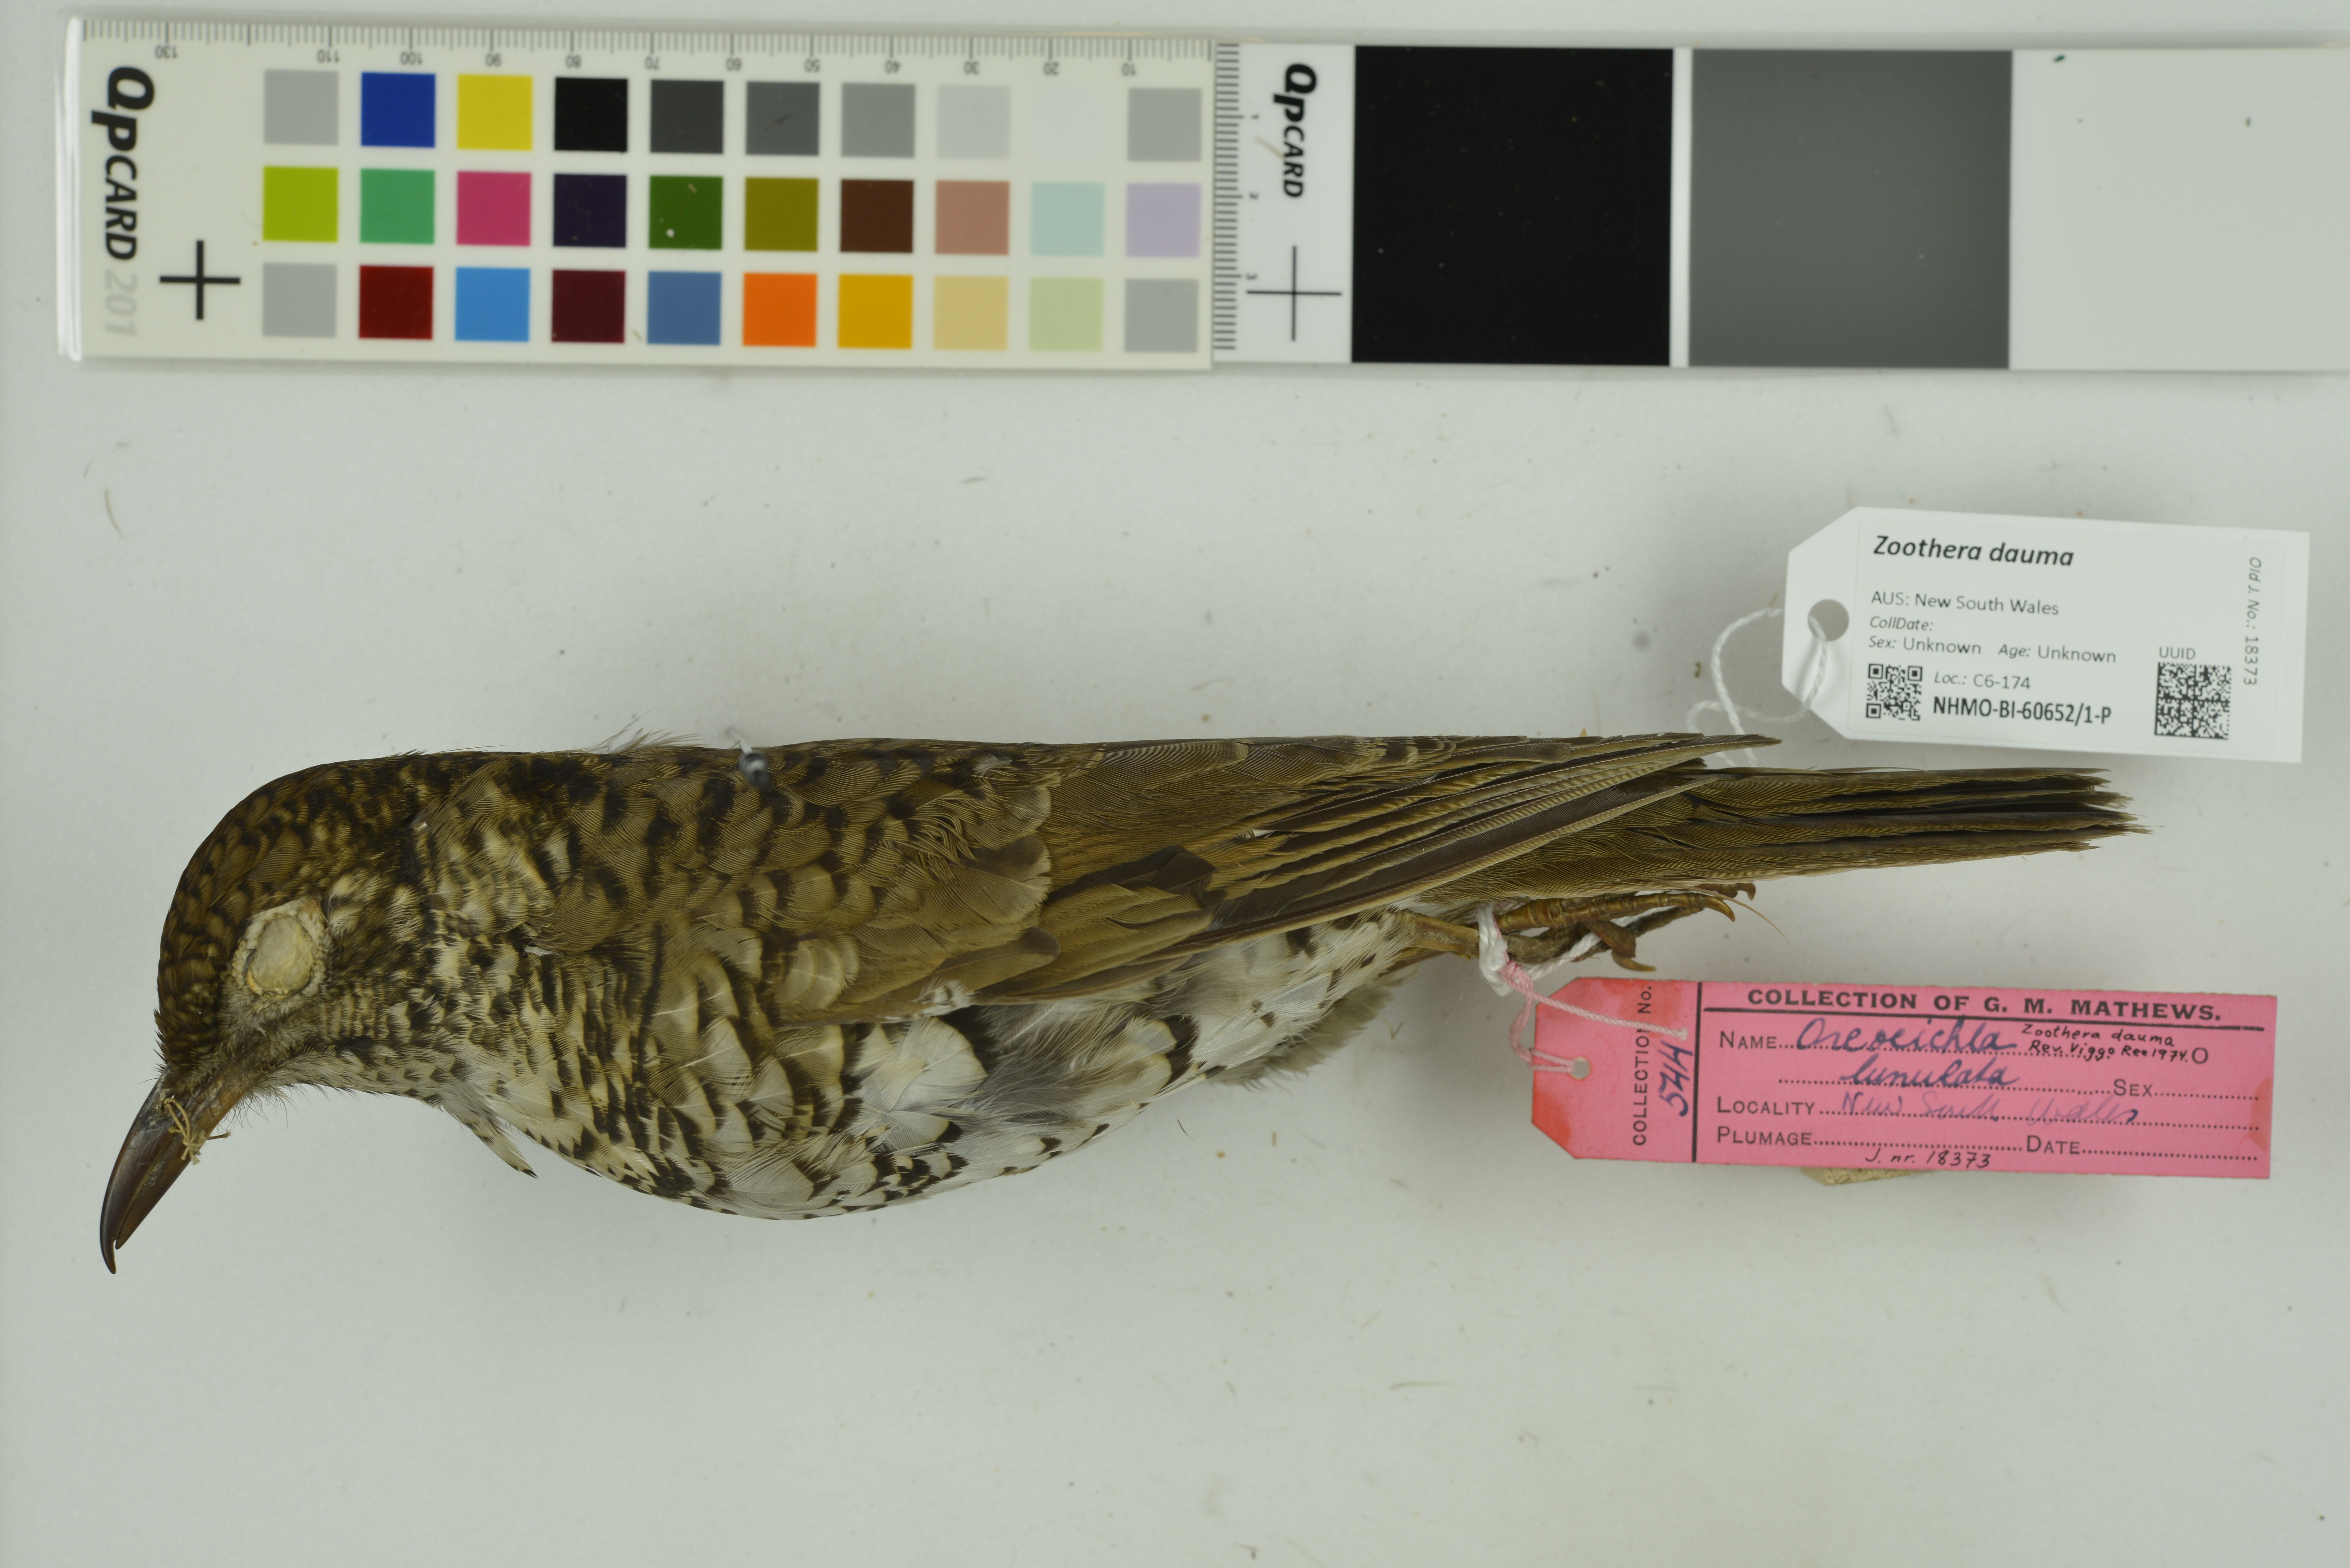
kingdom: Animalia
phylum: Chordata
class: Aves
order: Passeriformes
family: Turdidae
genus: Zoothera
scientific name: Zoothera dauma
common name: Scaly thrush
